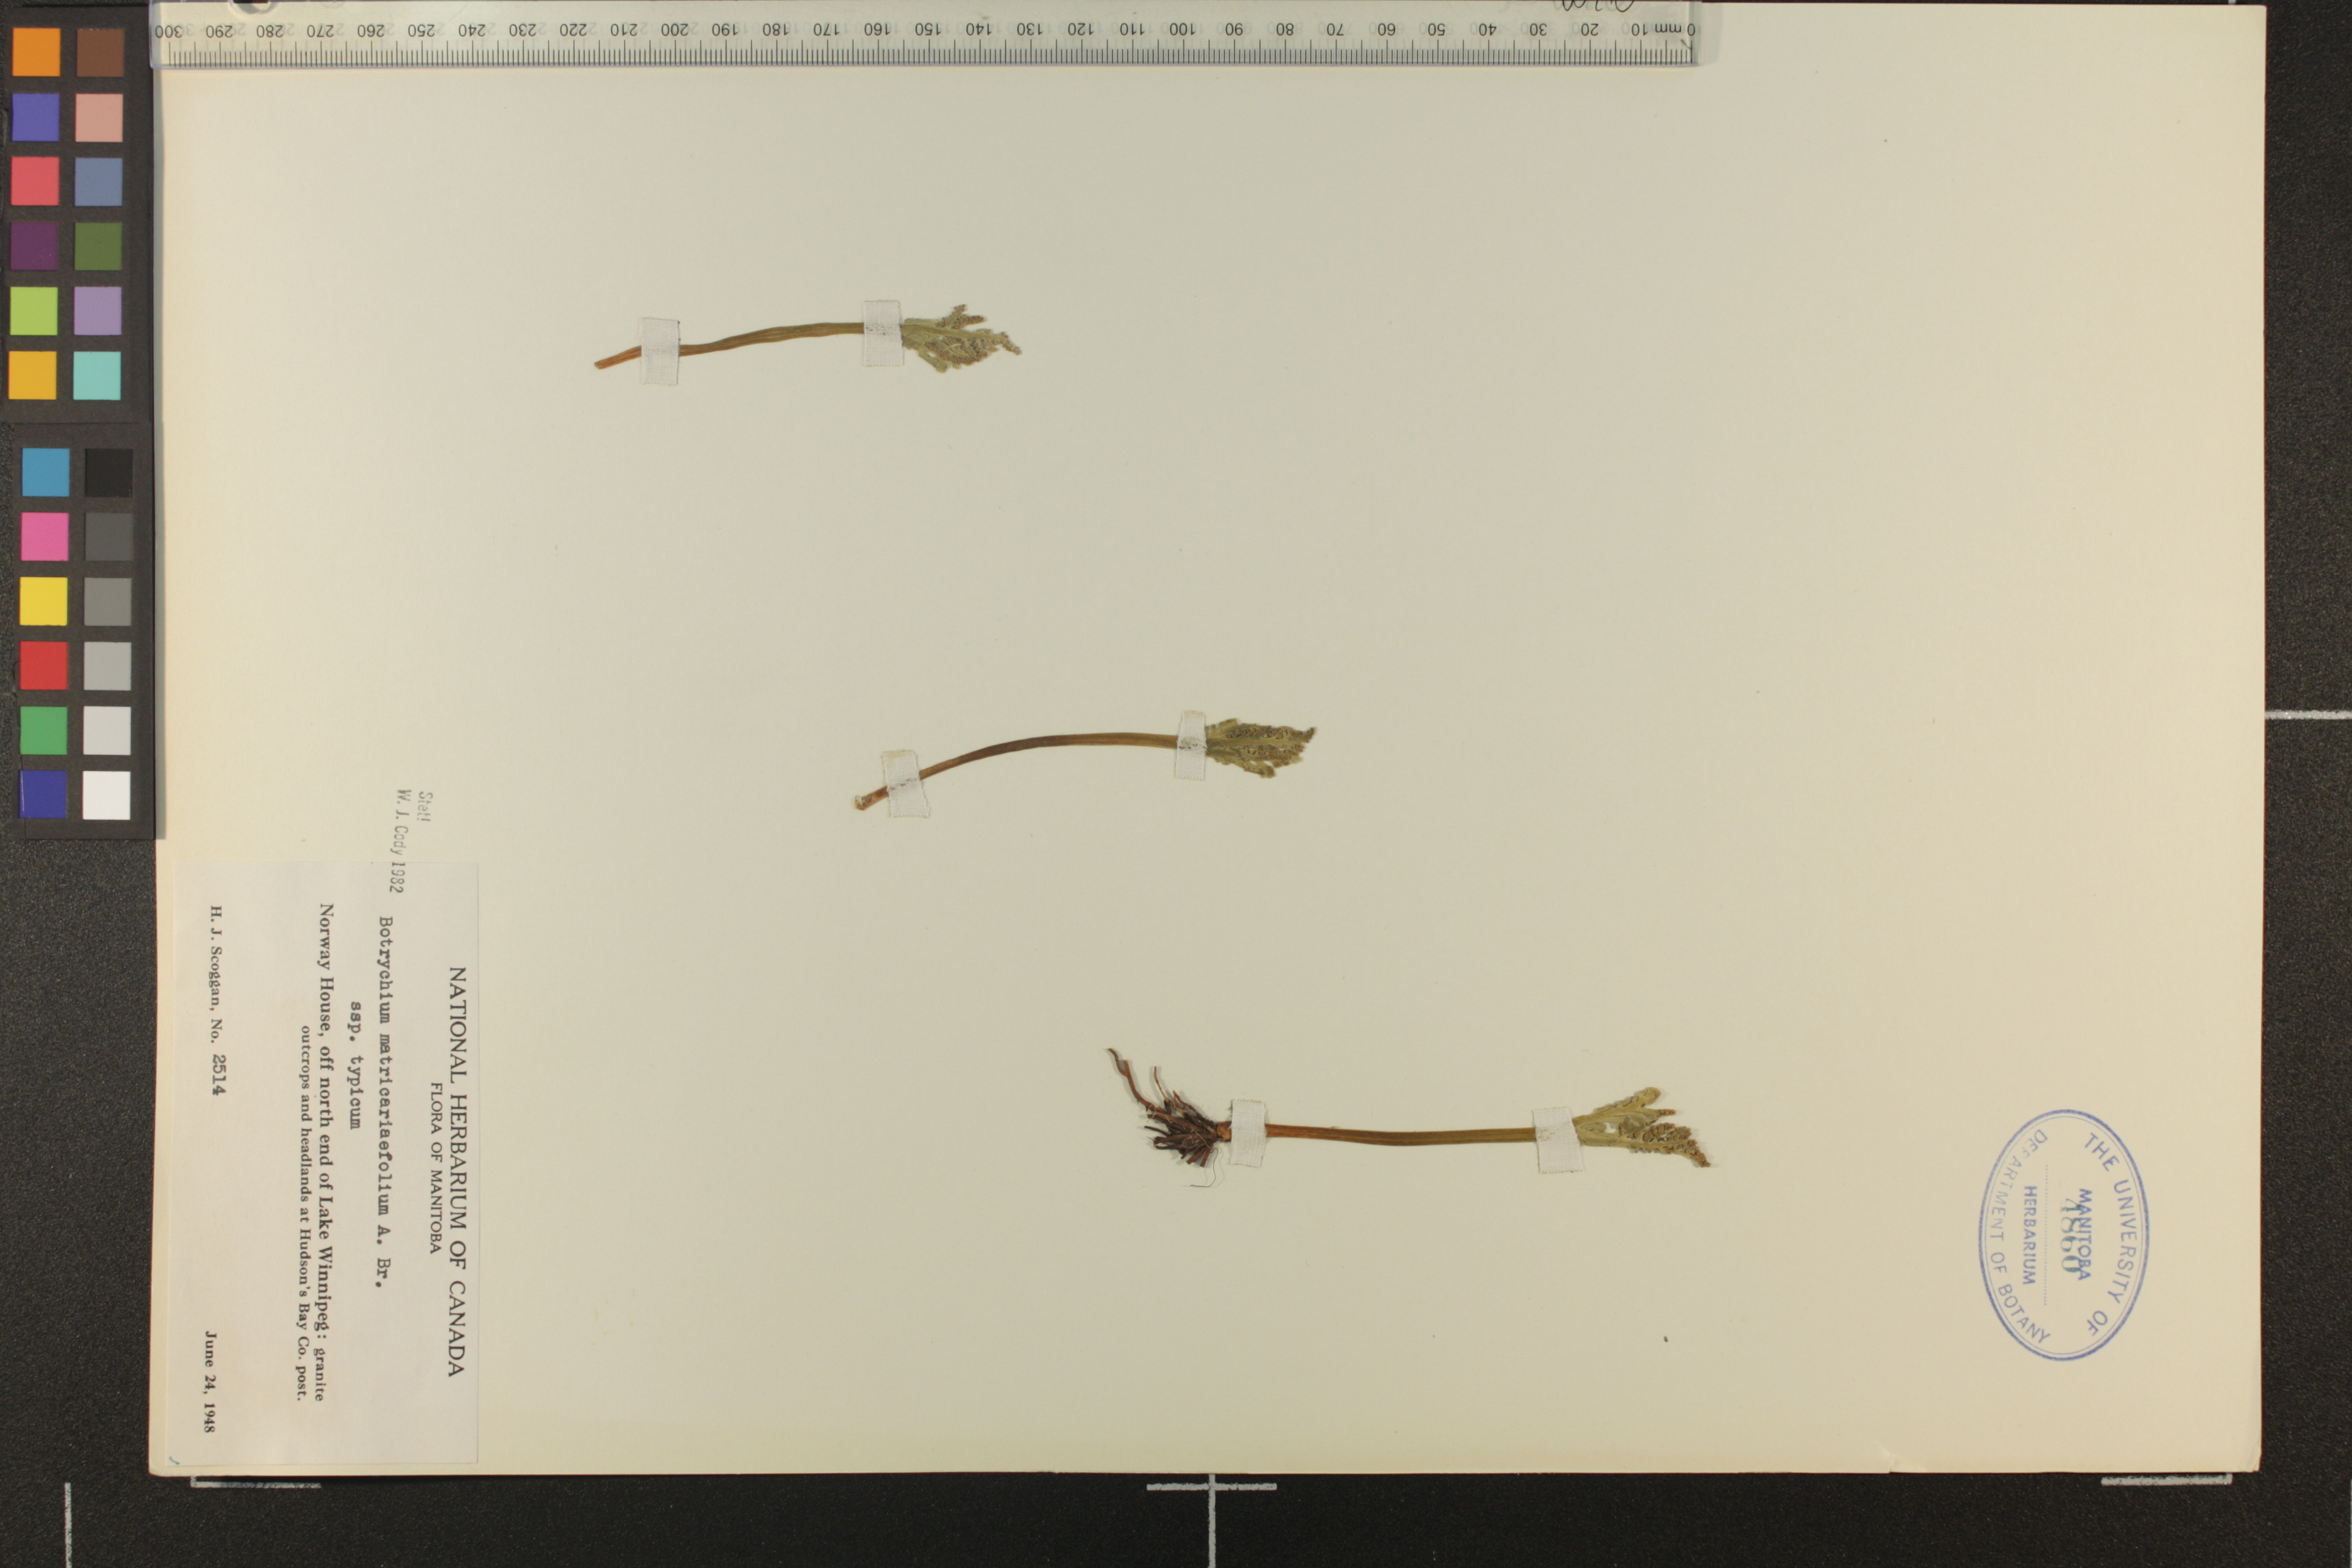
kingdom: Plantae
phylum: Tracheophyta
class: Polypodiopsida
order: Ophioglossales
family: Ophioglossaceae
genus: Botrychium
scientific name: Botrychium matricariifolium
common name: Branched moonwort
